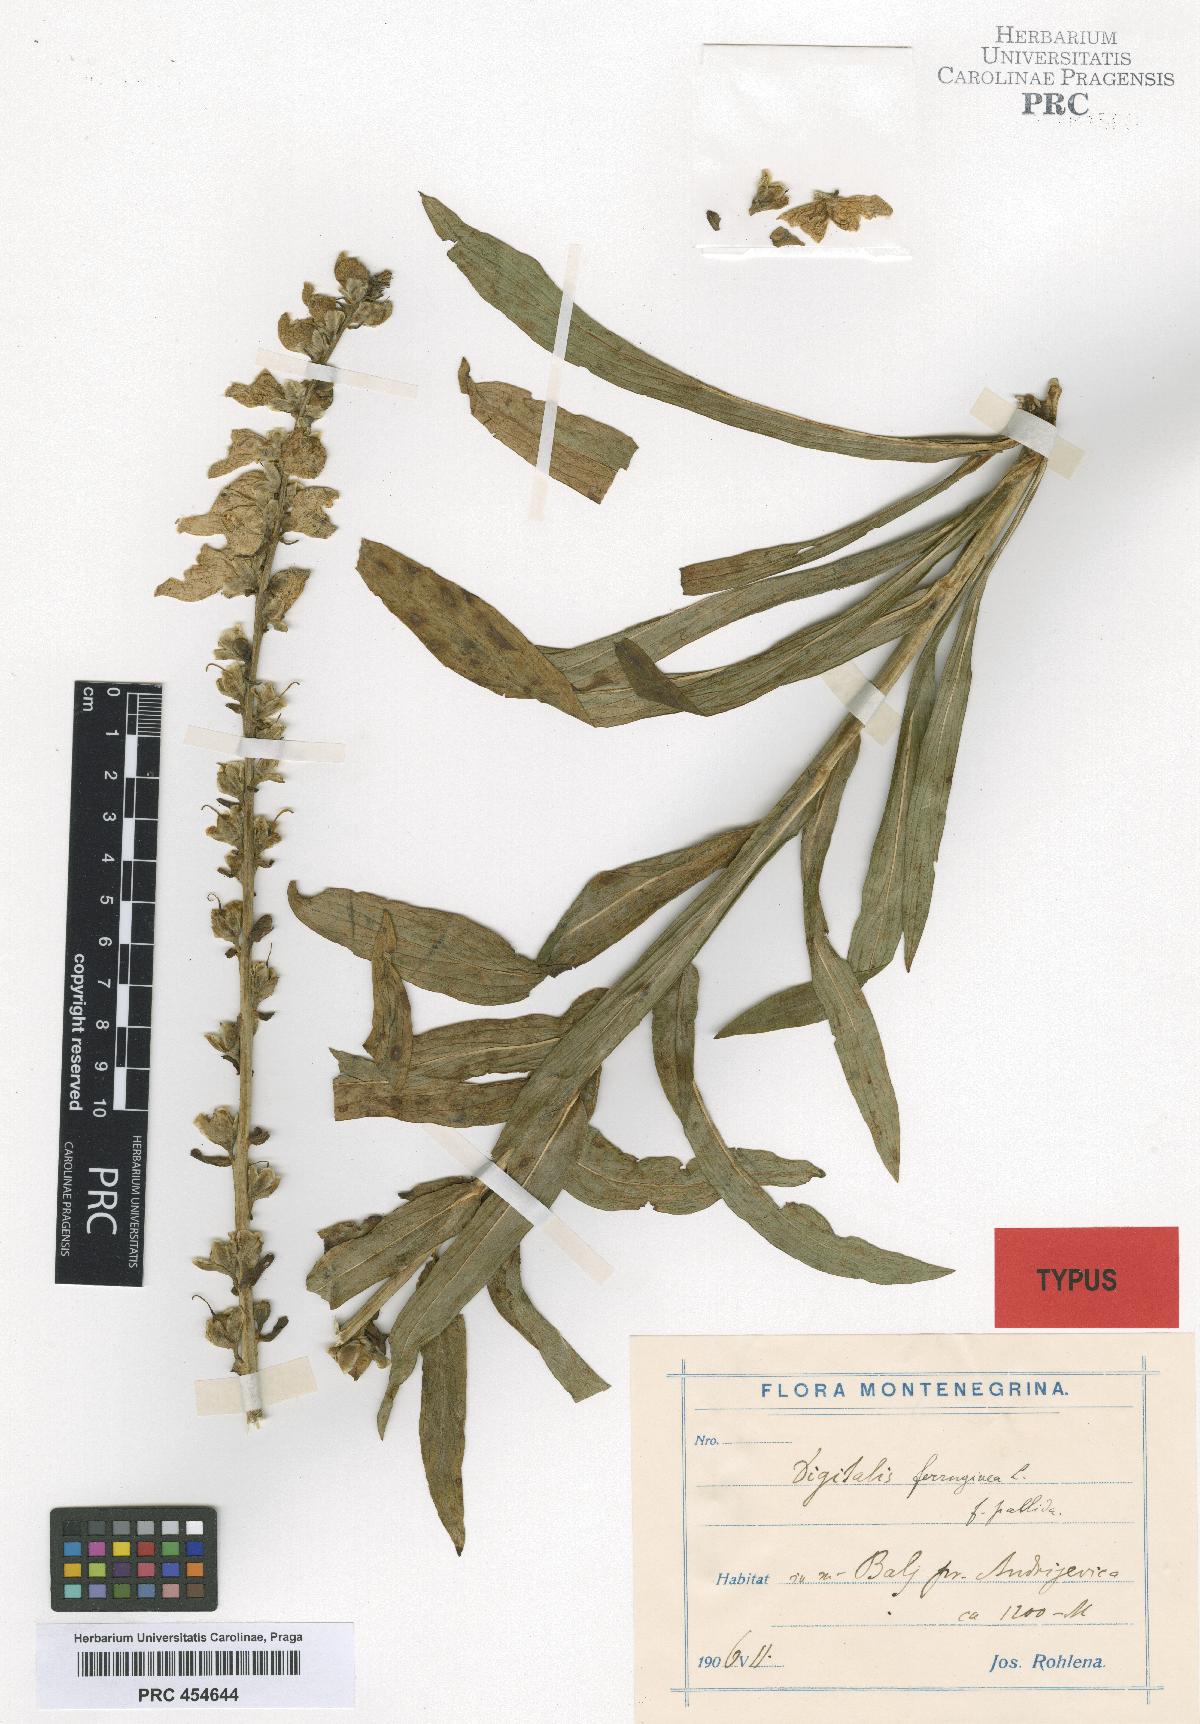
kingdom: Plantae
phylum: Tracheophyta
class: Magnoliopsida
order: Lamiales
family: Plantaginaceae
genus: Digitalis
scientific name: Digitalis ferruginea
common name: Rusty foxglove
